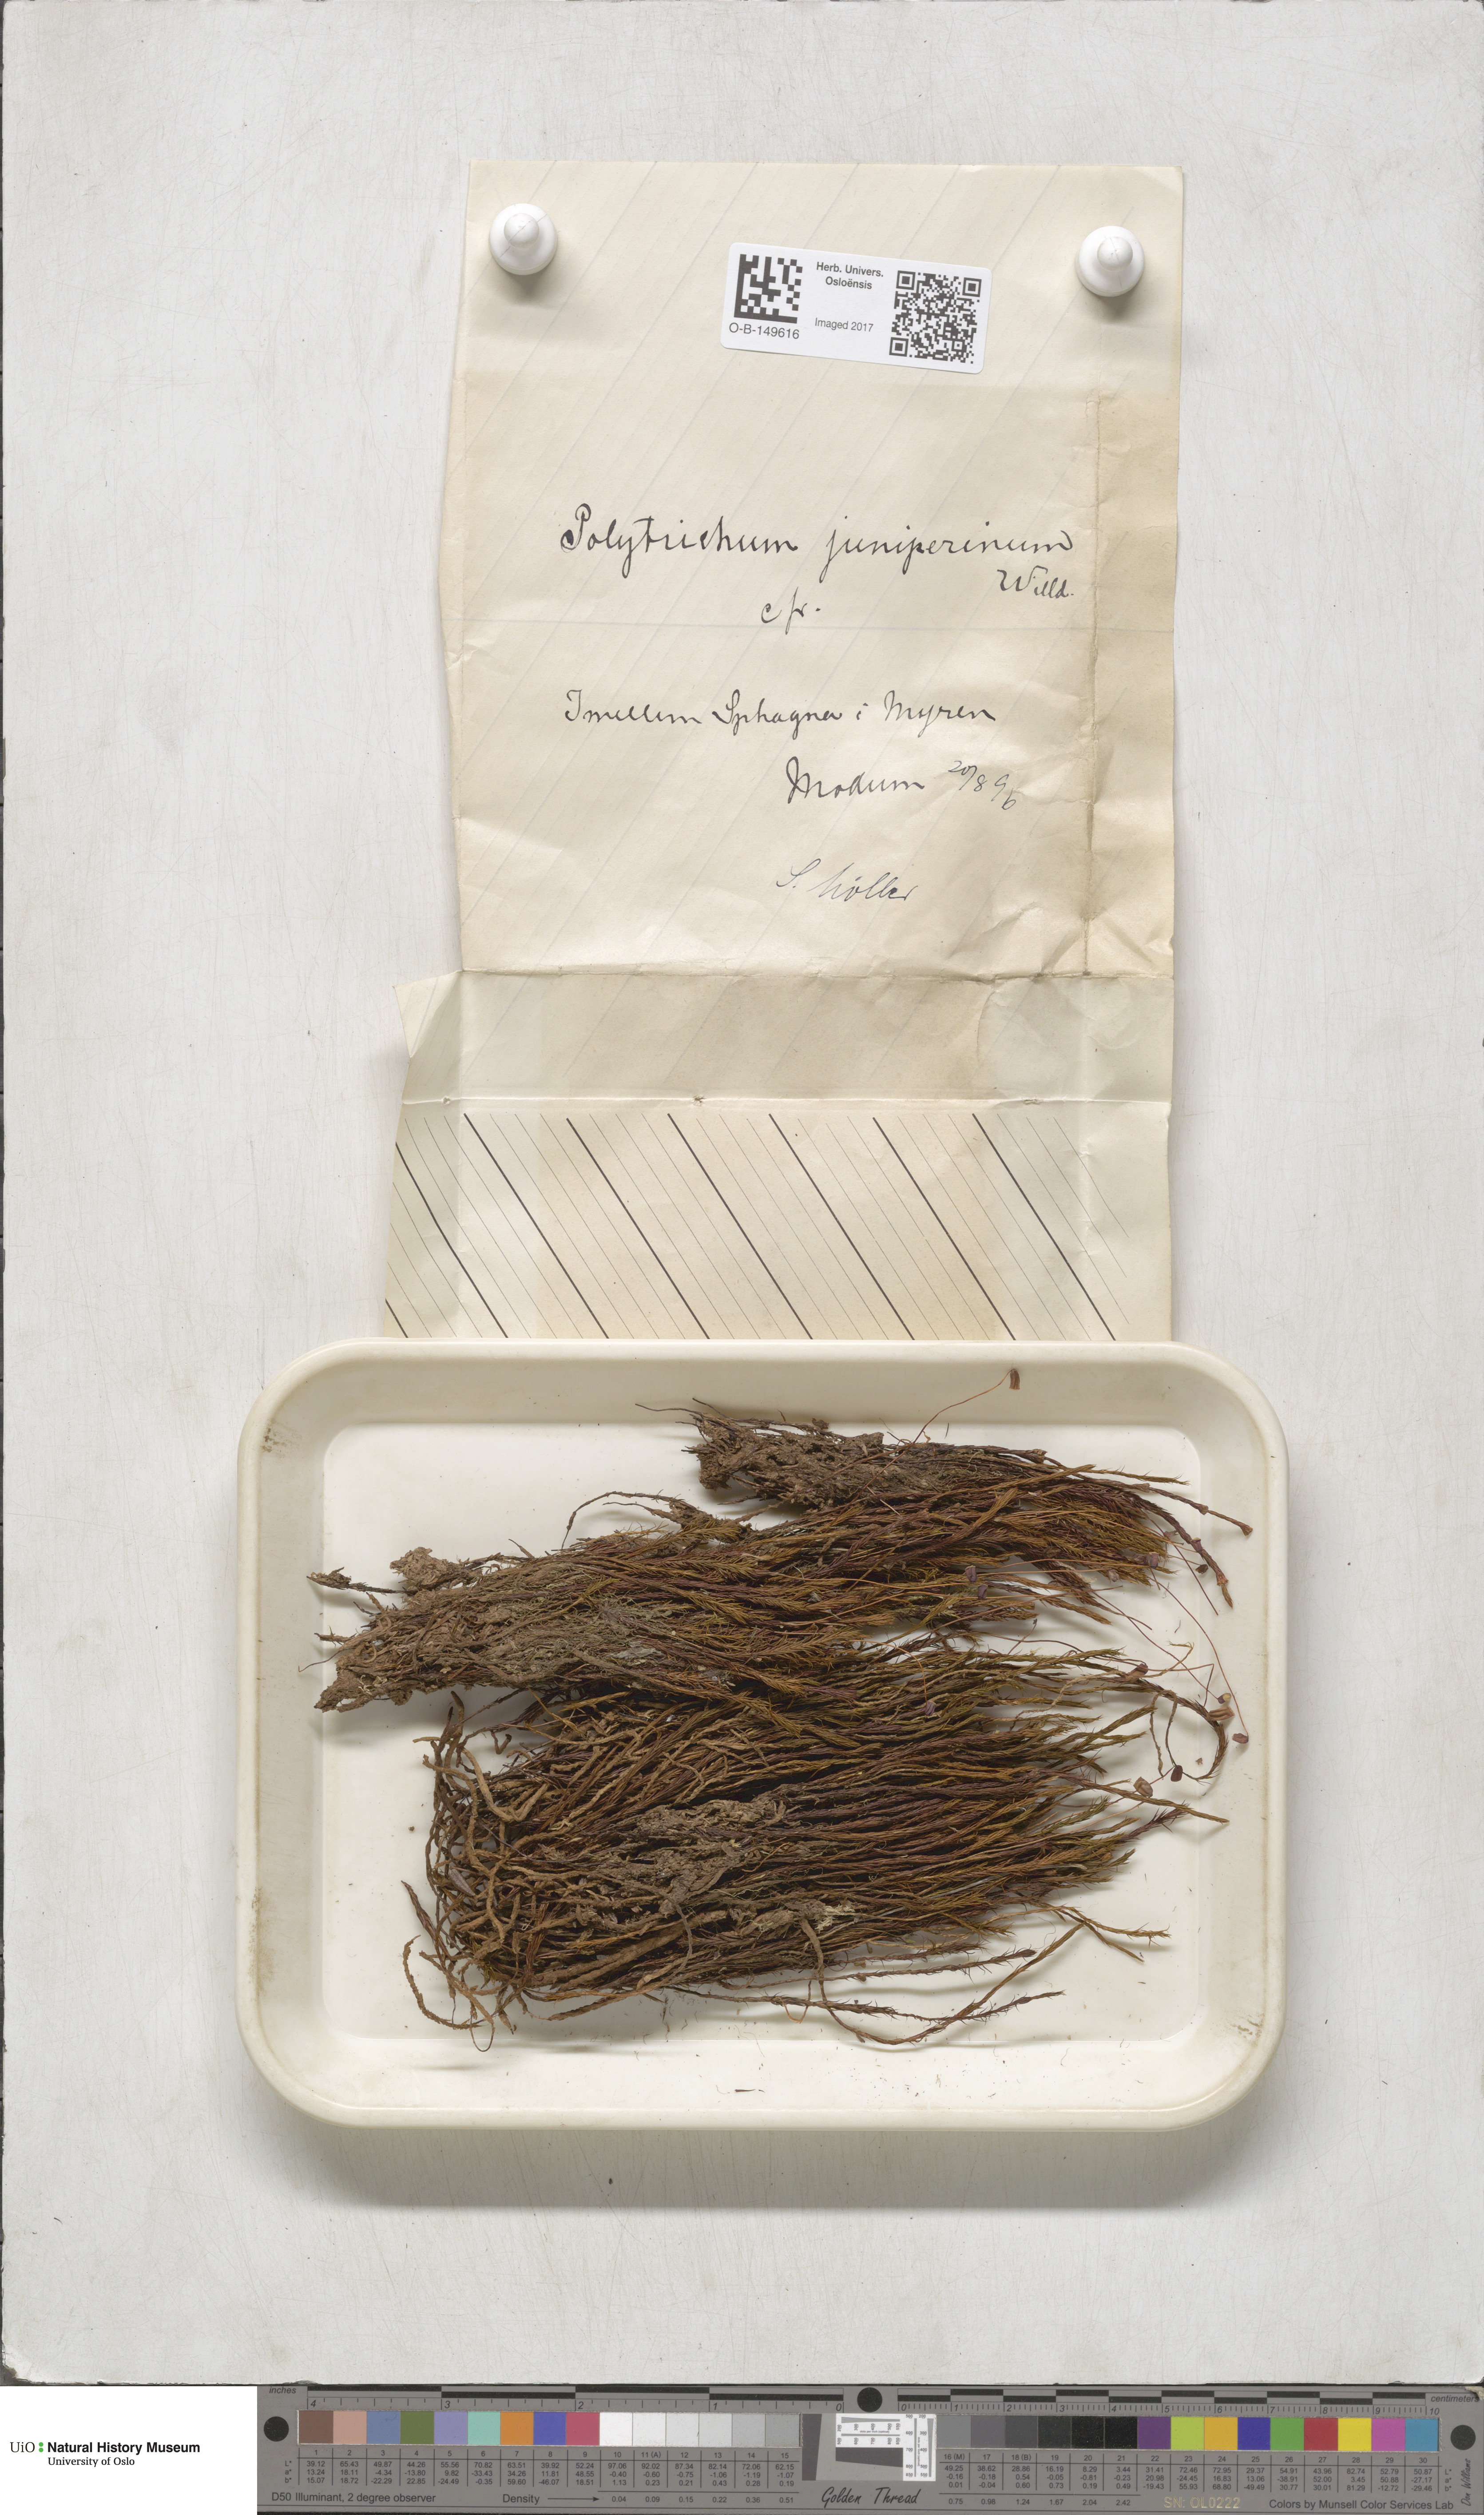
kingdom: Plantae
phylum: Bryophyta
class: Polytrichopsida
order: Polytrichales
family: Polytrichaceae
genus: Polytrichum
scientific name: Polytrichum juniperinum
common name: Juniper haircap moss
